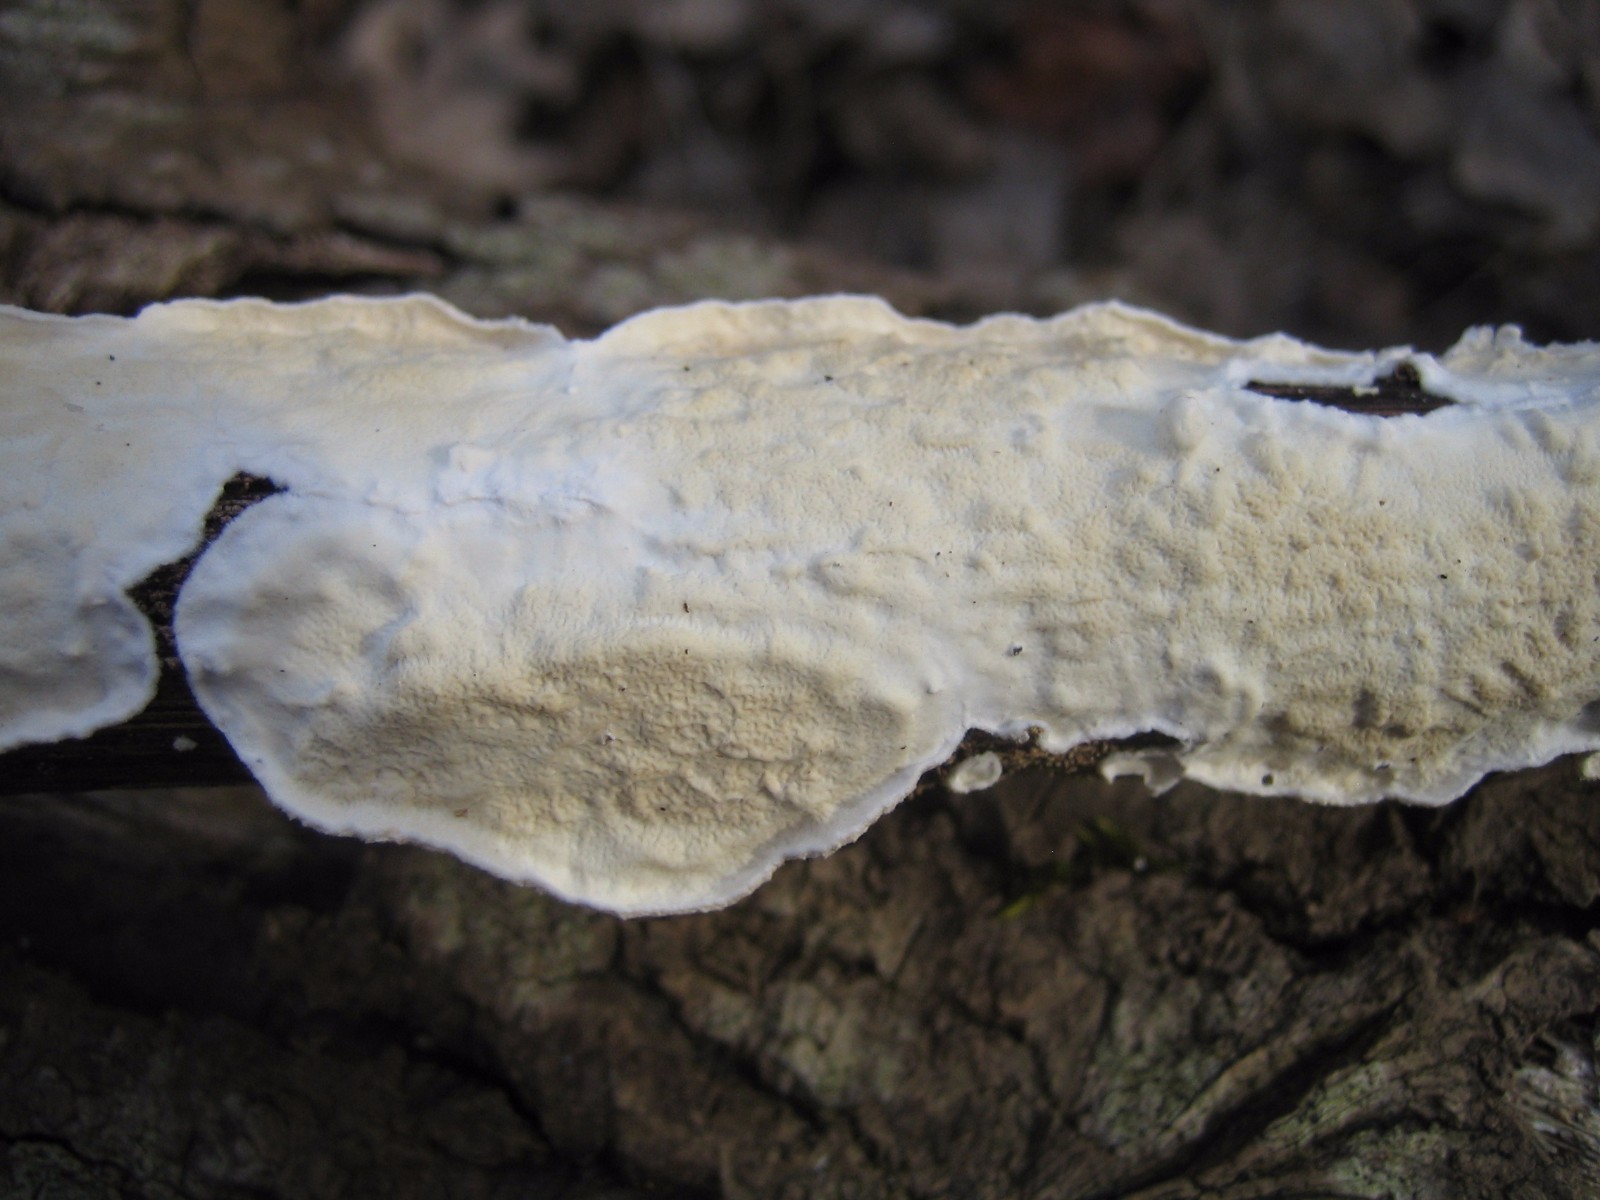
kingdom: Fungi
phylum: Basidiomycota
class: Agaricomycetes
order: Polyporales
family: Irpicaceae
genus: Byssomerulius
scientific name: Byssomerulius corium
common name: læder-åresvamp
